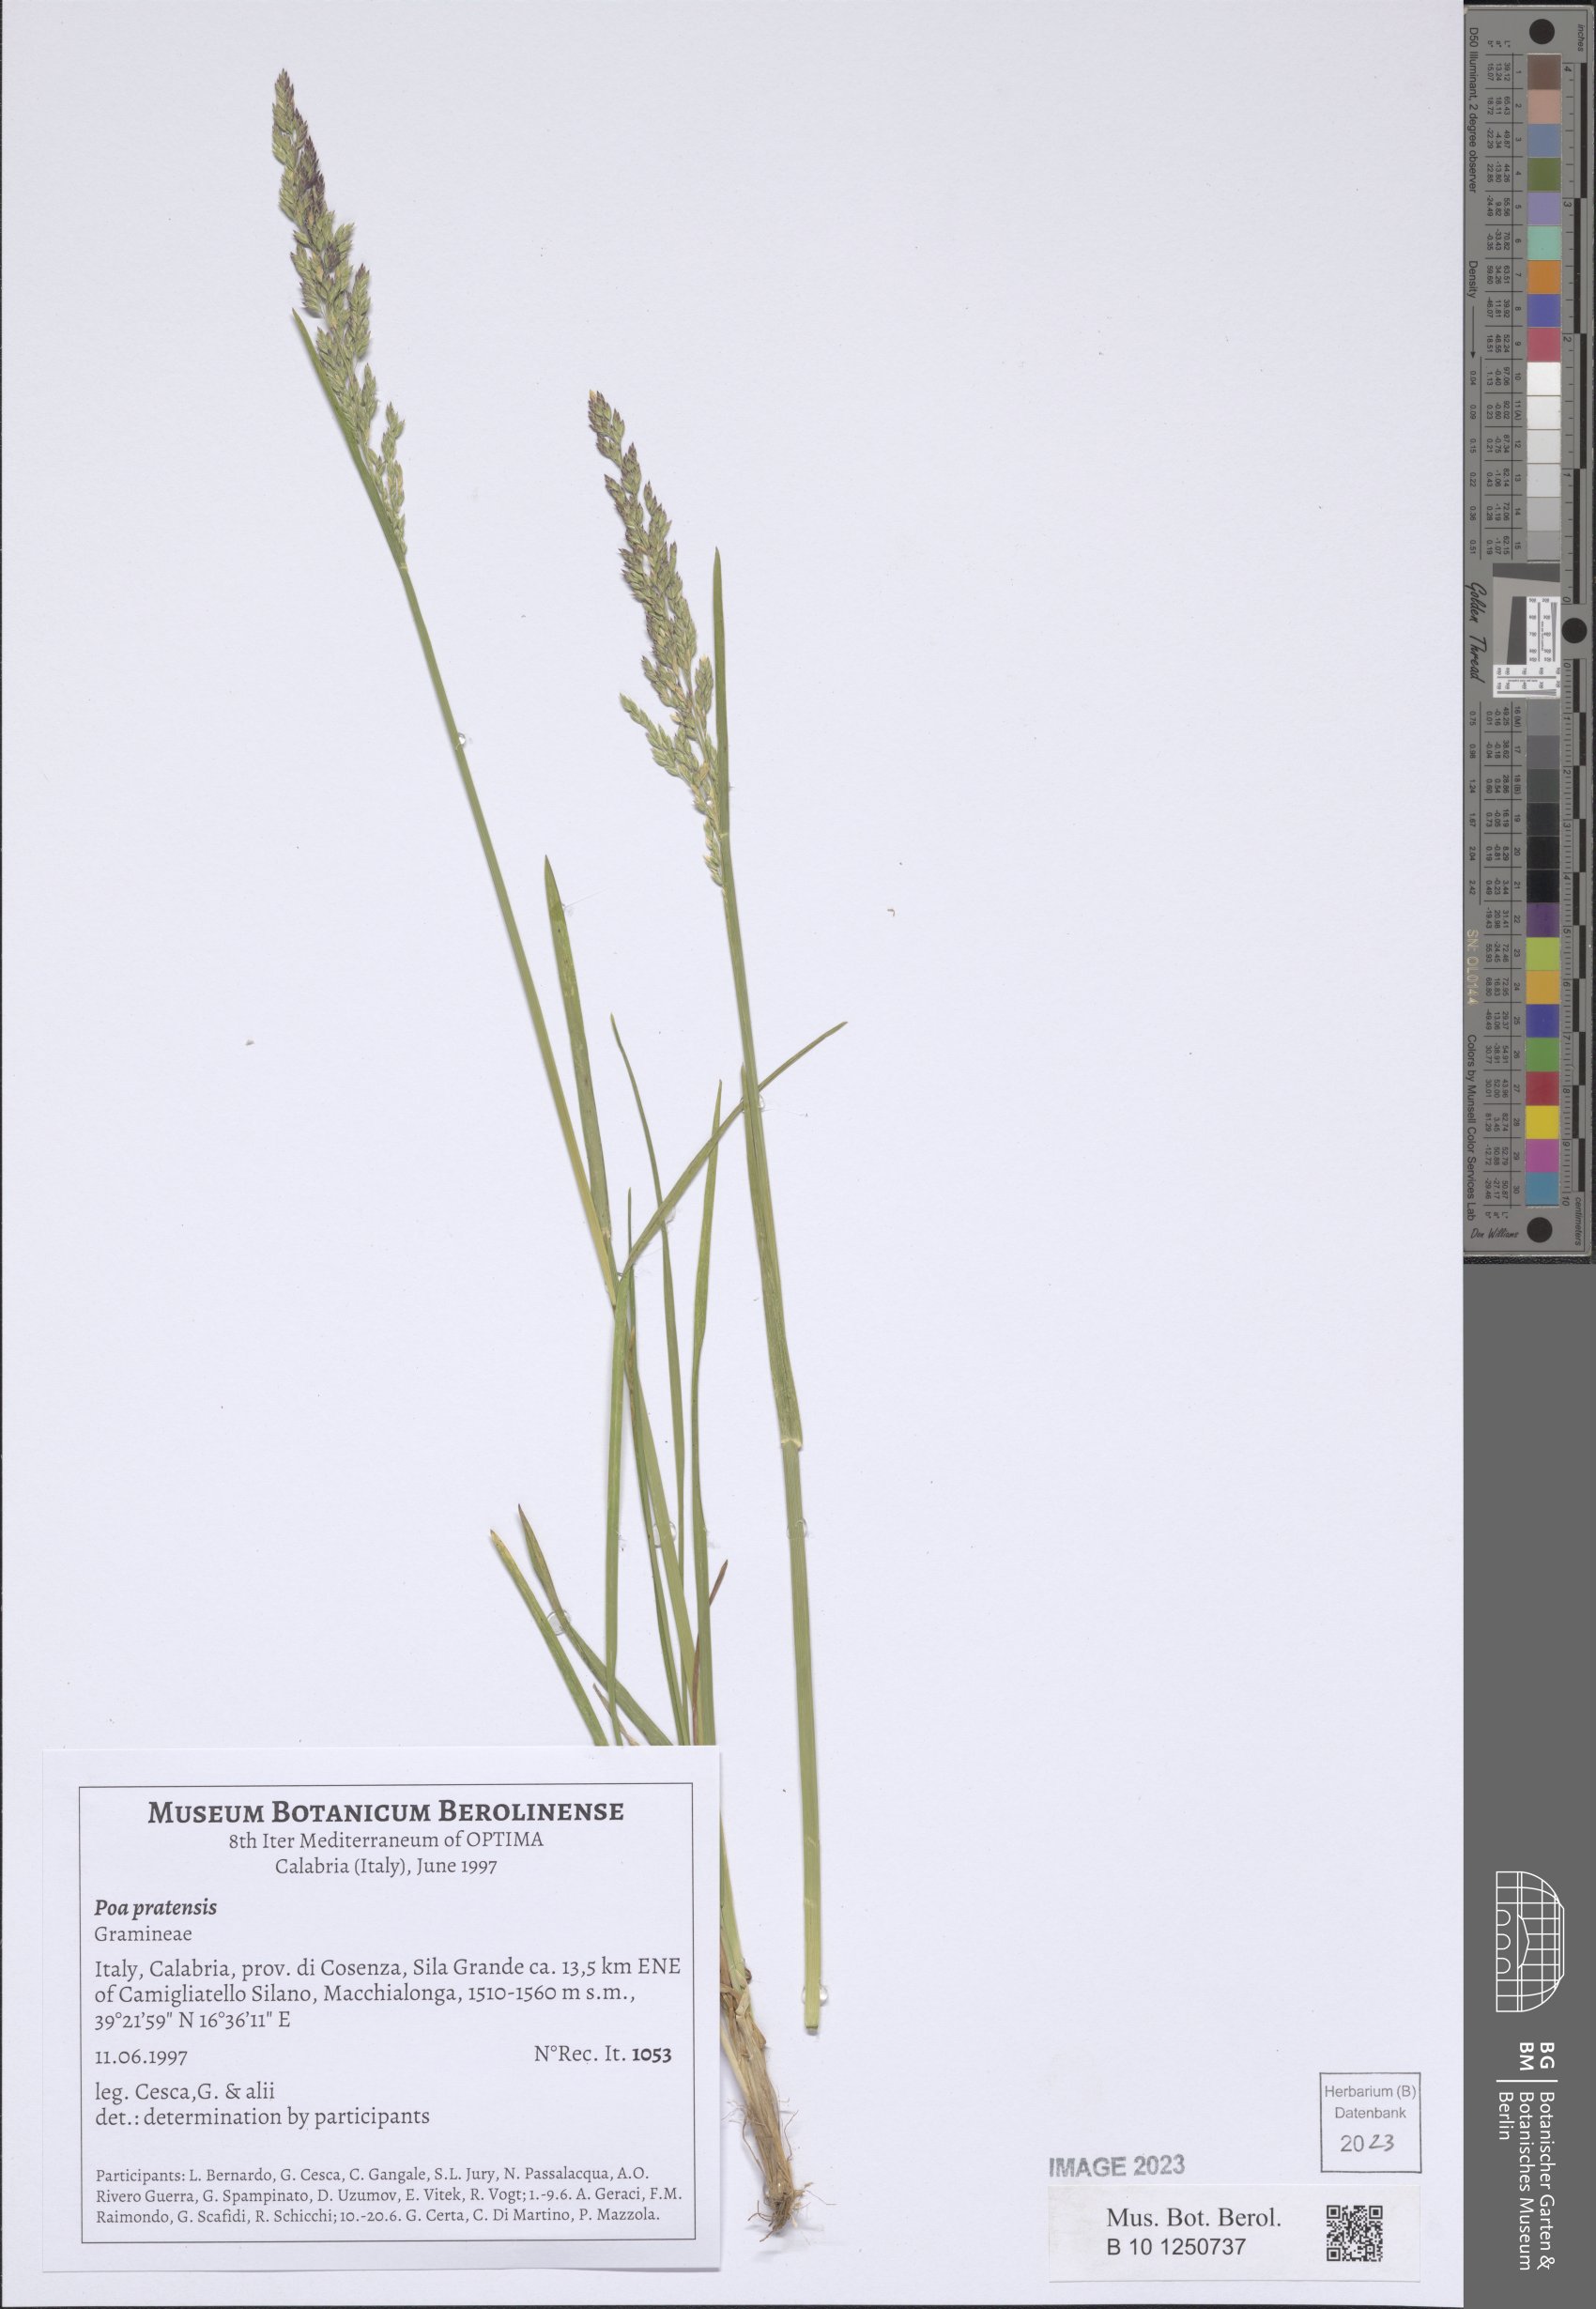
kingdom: Plantae
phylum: Tracheophyta
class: Liliopsida
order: Poales
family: Poaceae
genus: Poa
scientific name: Poa pratensis
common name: Kentucky bluegrass
